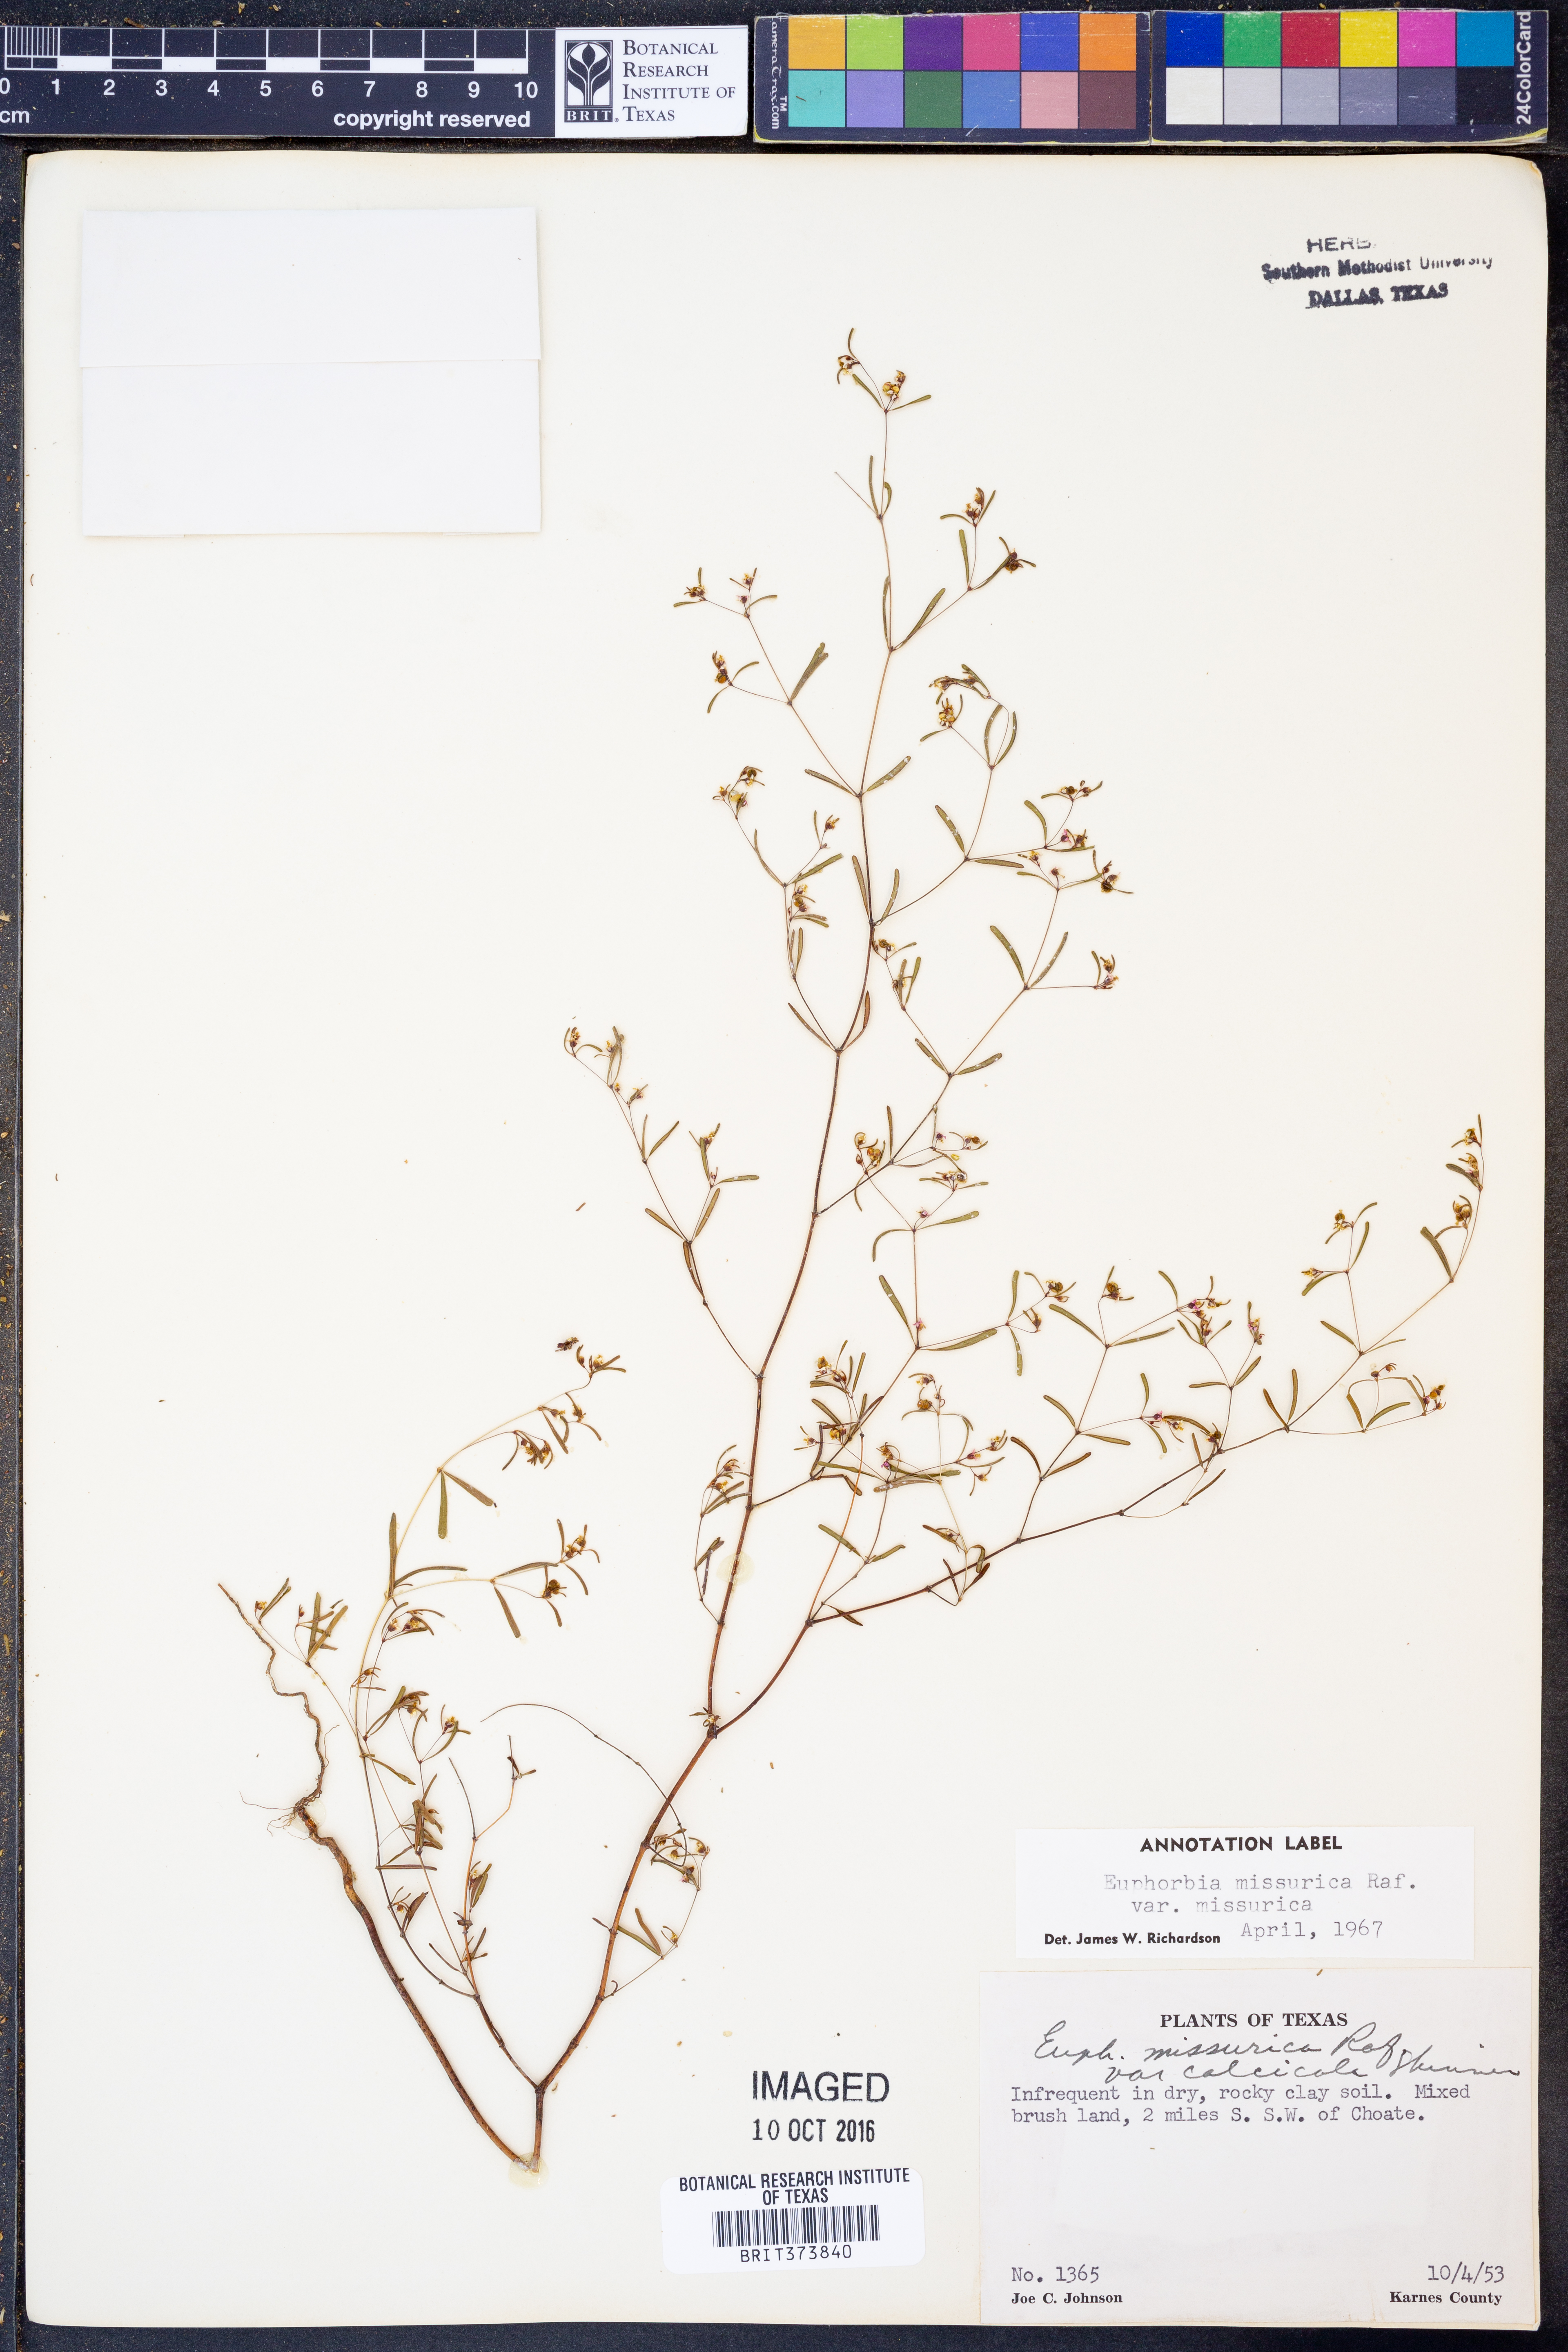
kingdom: Plantae
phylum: Tracheophyta
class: Magnoliopsida
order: Malpighiales
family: Euphorbiaceae
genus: Euphorbia
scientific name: Euphorbia missurica
